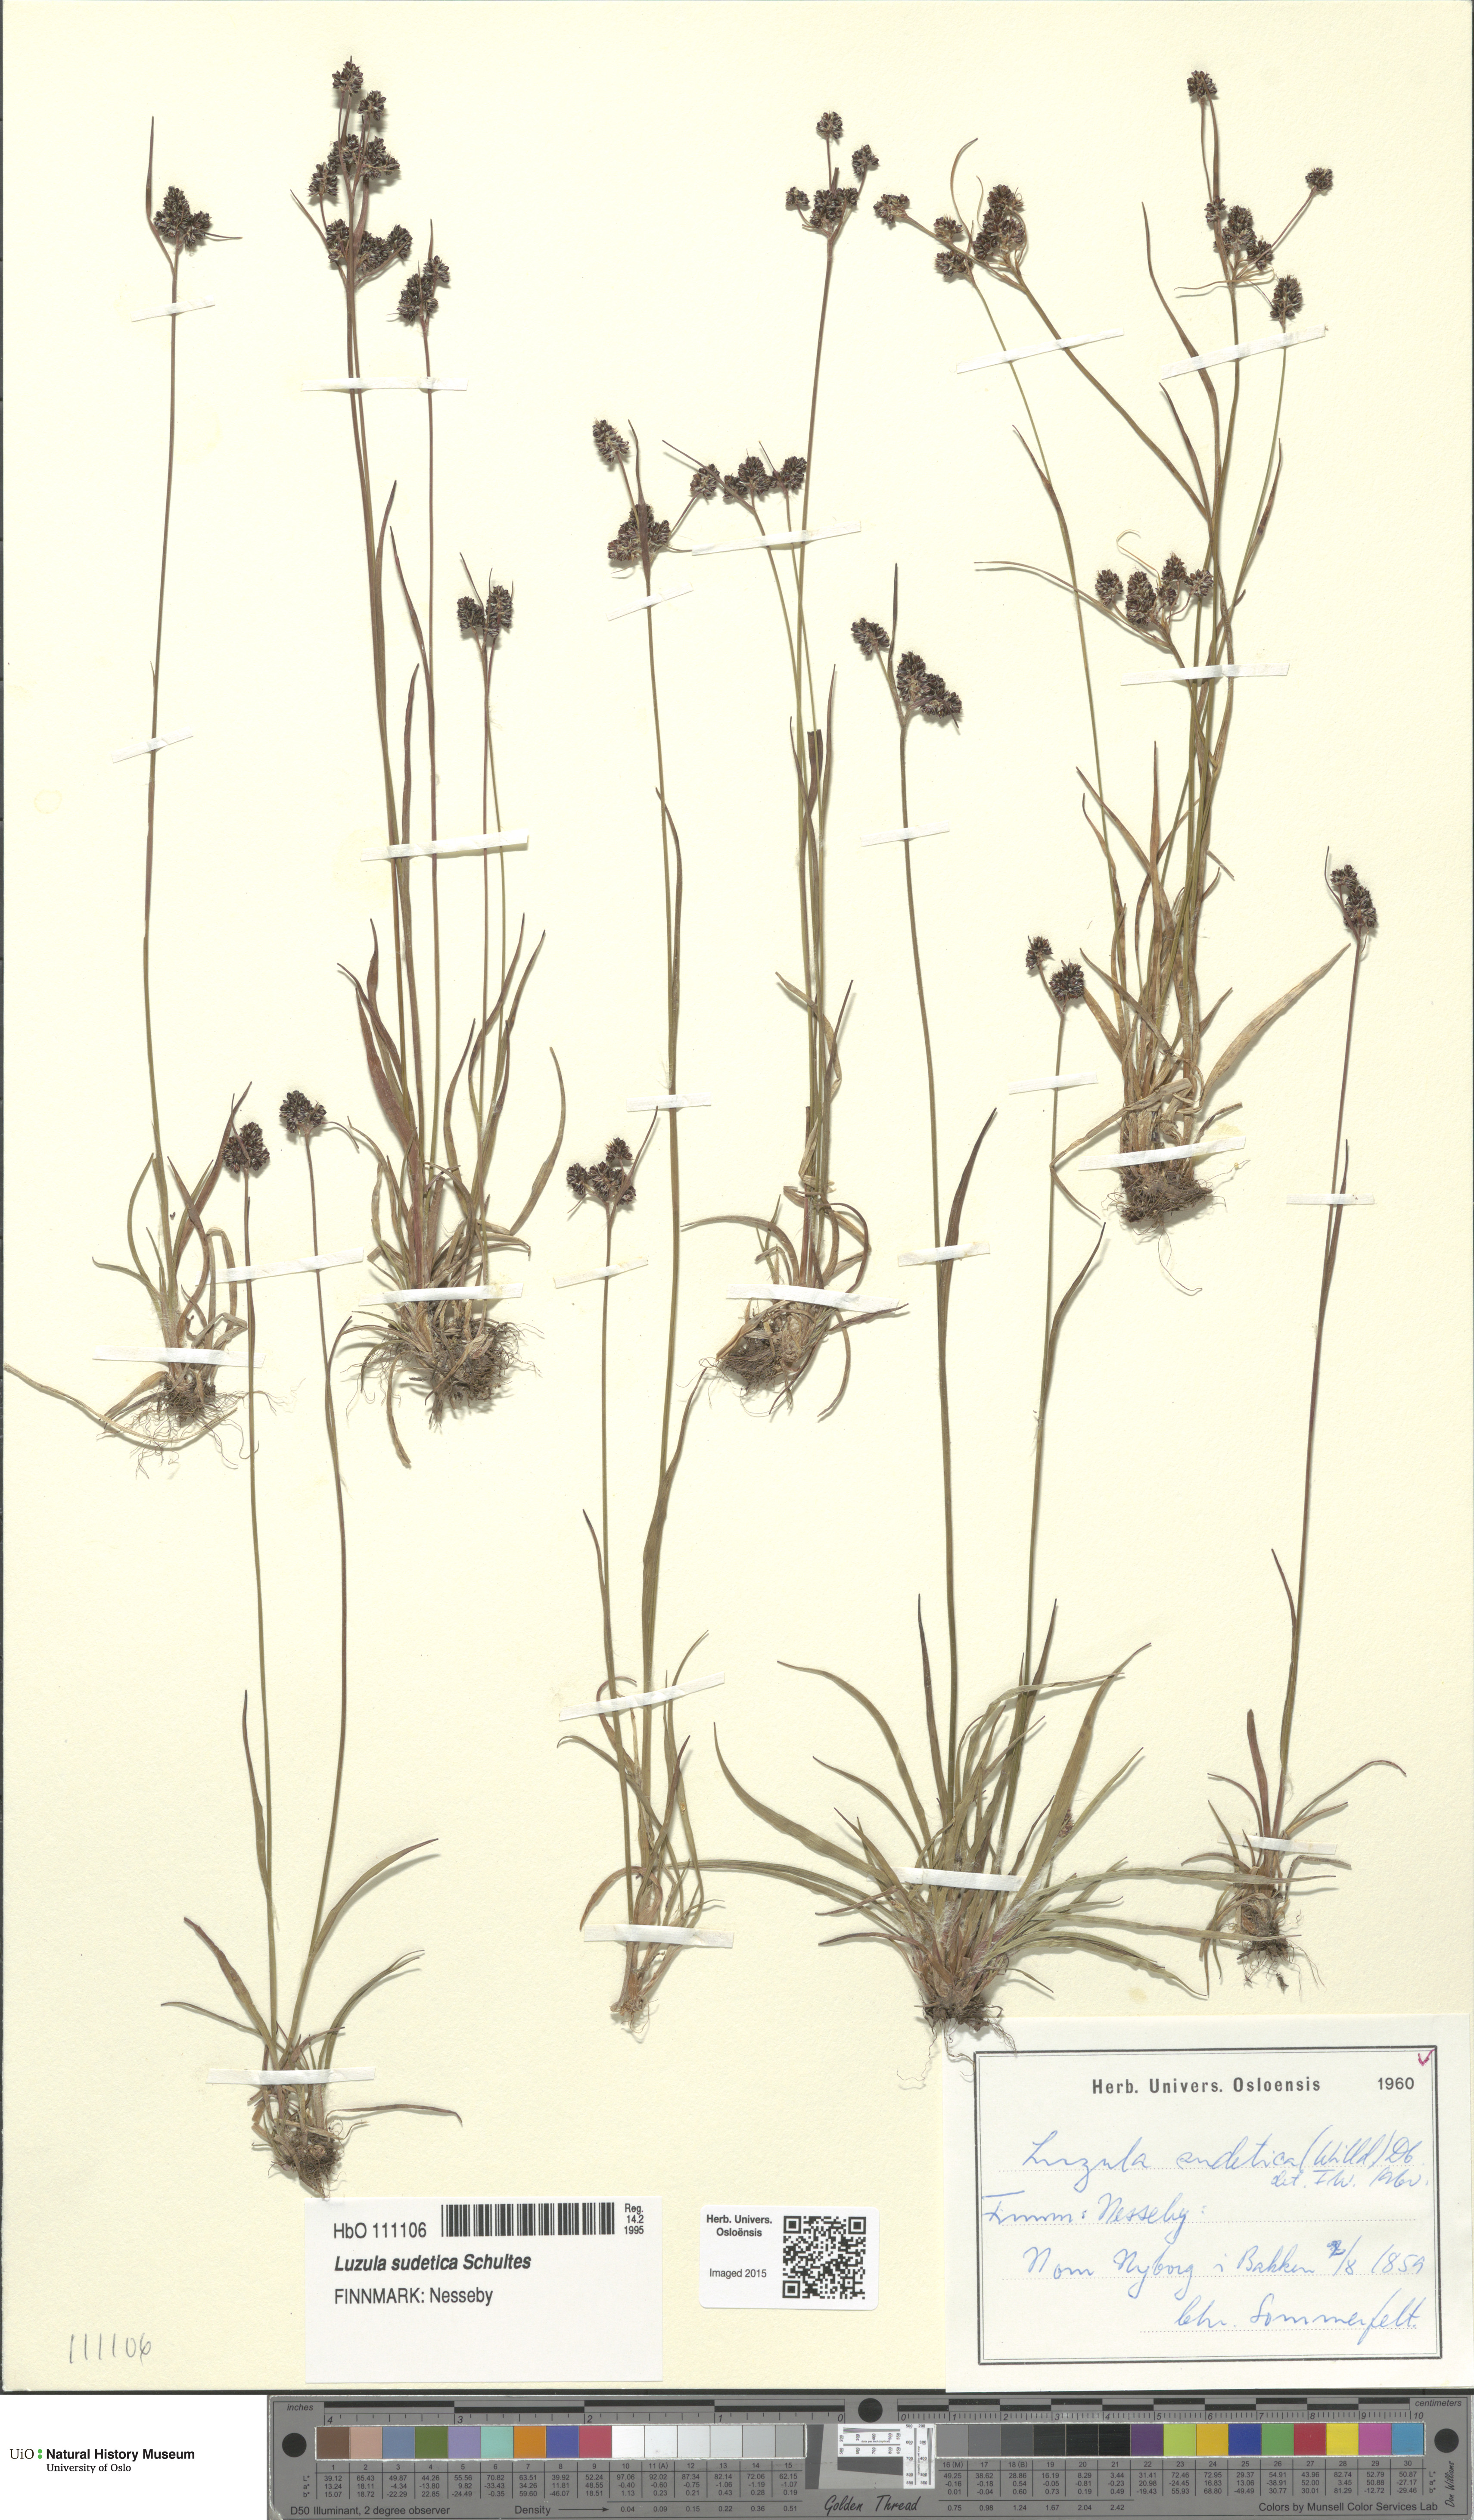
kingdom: Plantae
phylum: Tracheophyta
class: Liliopsida
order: Poales
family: Juncaceae
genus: Luzula
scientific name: Luzula sudetica
